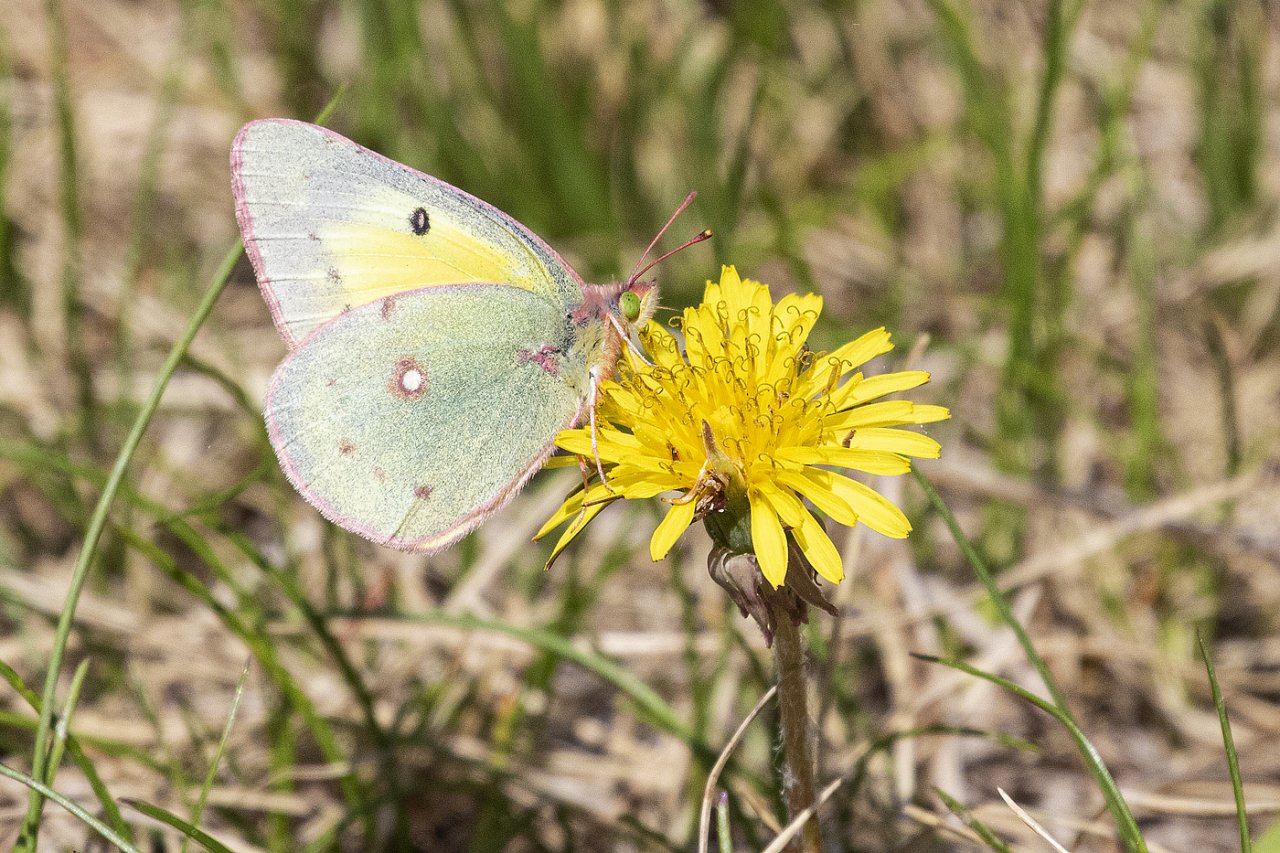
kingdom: Animalia
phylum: Arthropoda
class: Insecta
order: Lepidoptera
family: Pieridae
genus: Colias
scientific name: Colias philodice
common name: Clouded Sulphur
